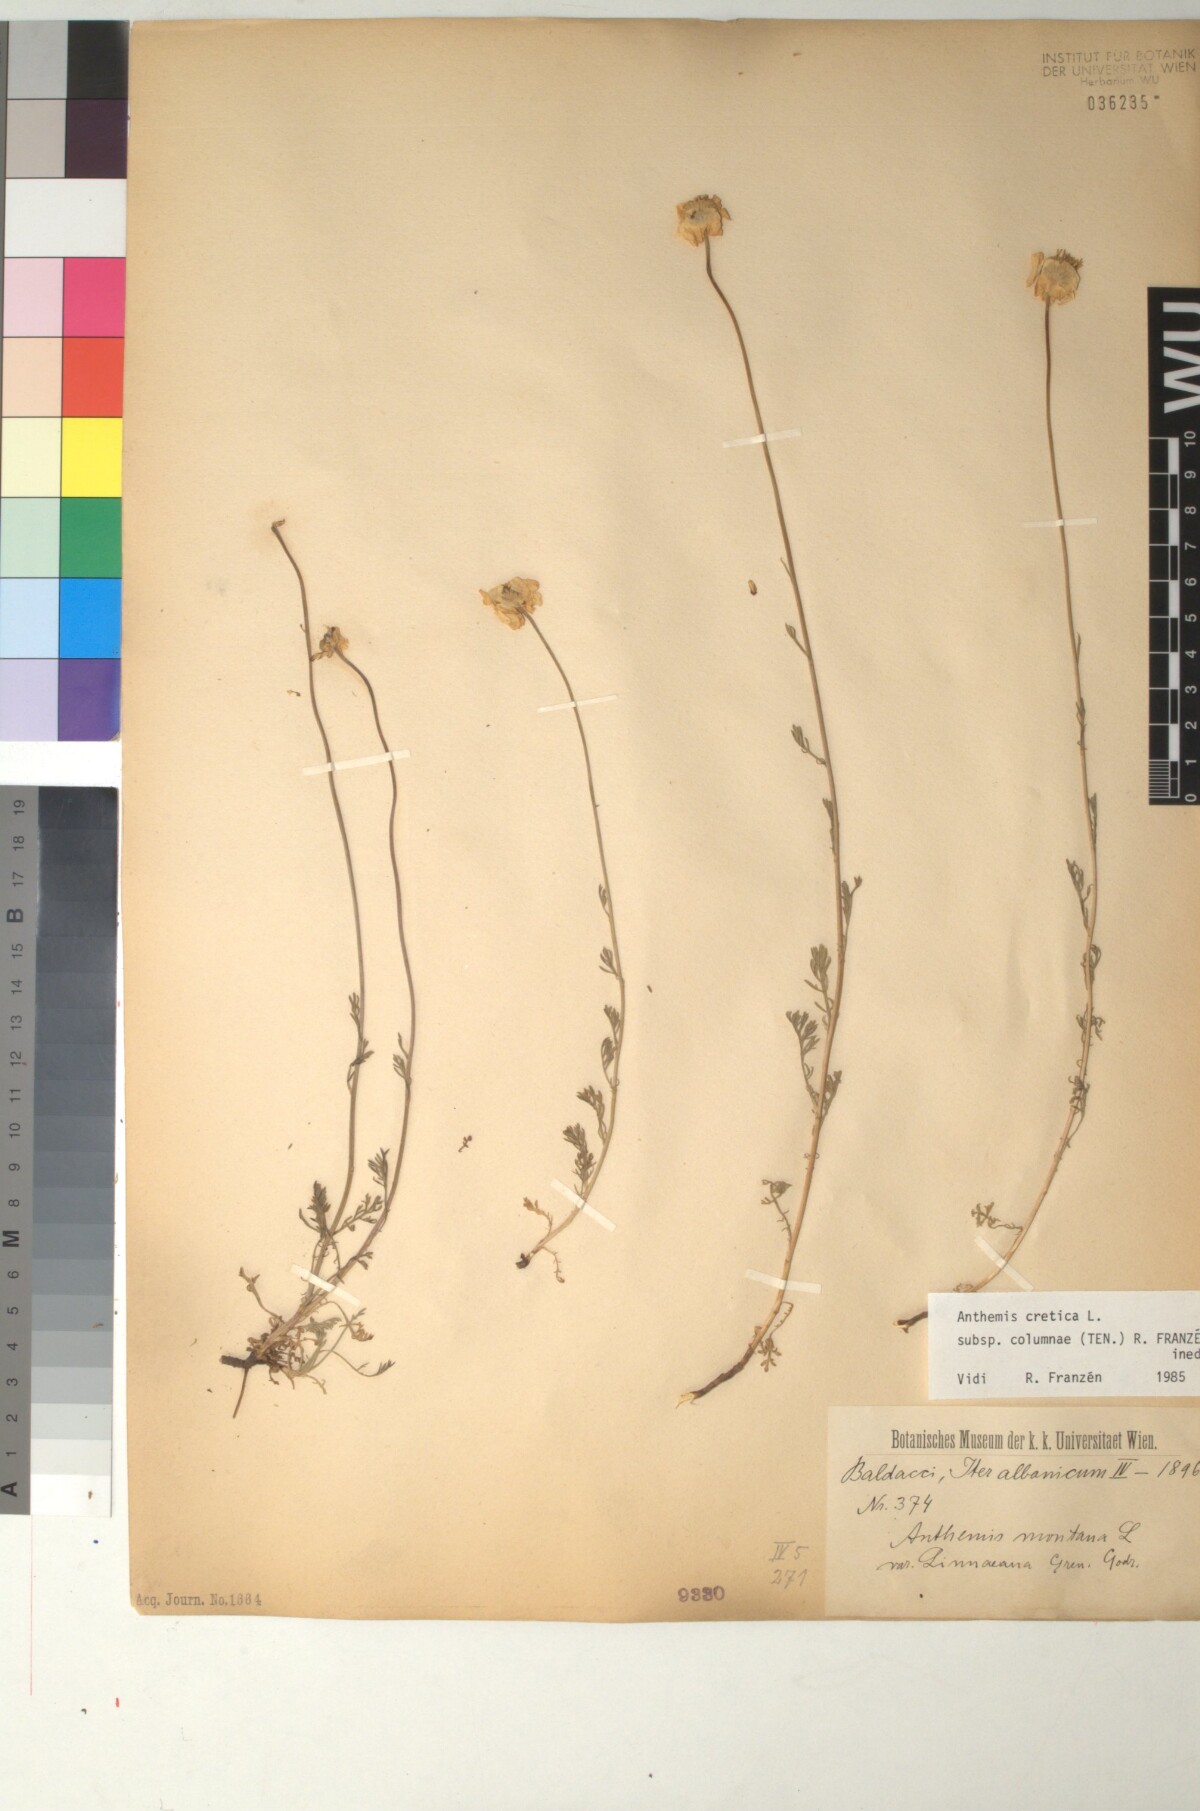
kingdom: Plantae
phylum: Tracheophyta
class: Magnoliopsida
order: Asterales
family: Asteraceae
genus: Anthemis
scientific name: Anthemis cretica
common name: Mountain dog-daisy
